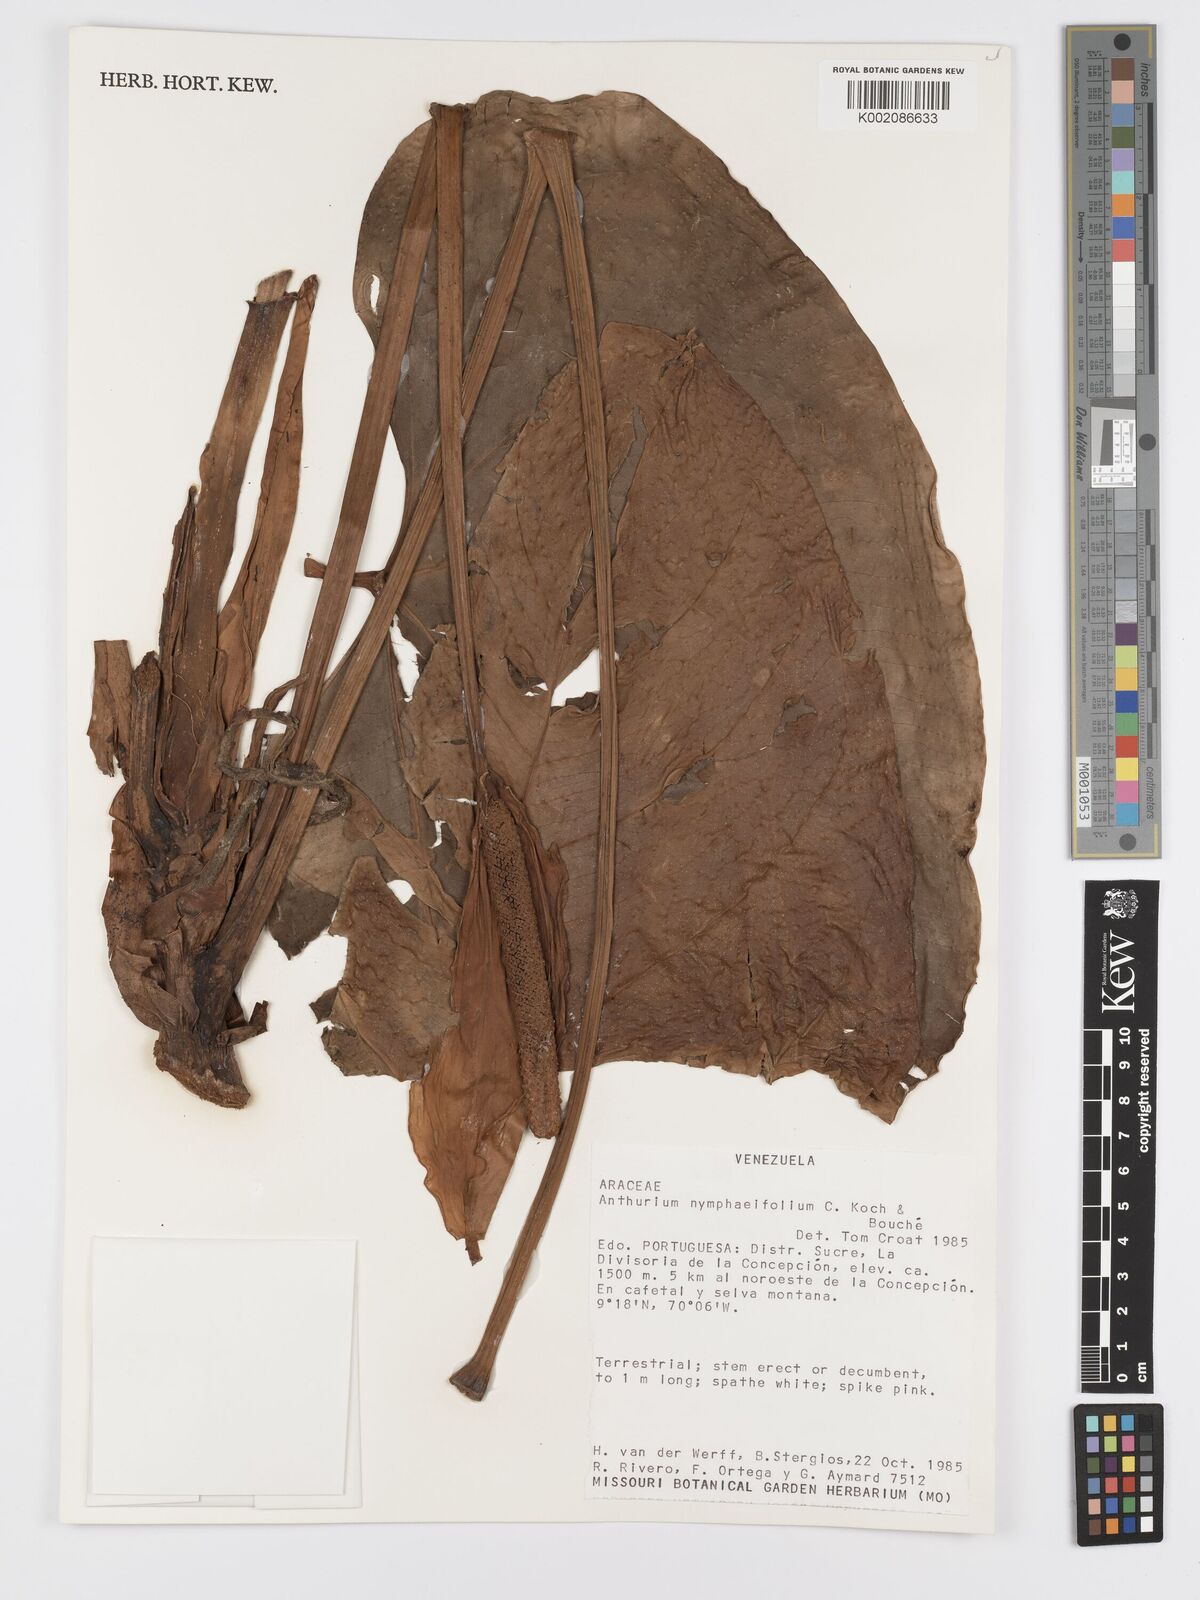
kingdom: Plantae
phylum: Tracheophyta
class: Liliopsida
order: Alismatales
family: Araceae
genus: Anthurium
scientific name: Anthurium nymphaeifolium
